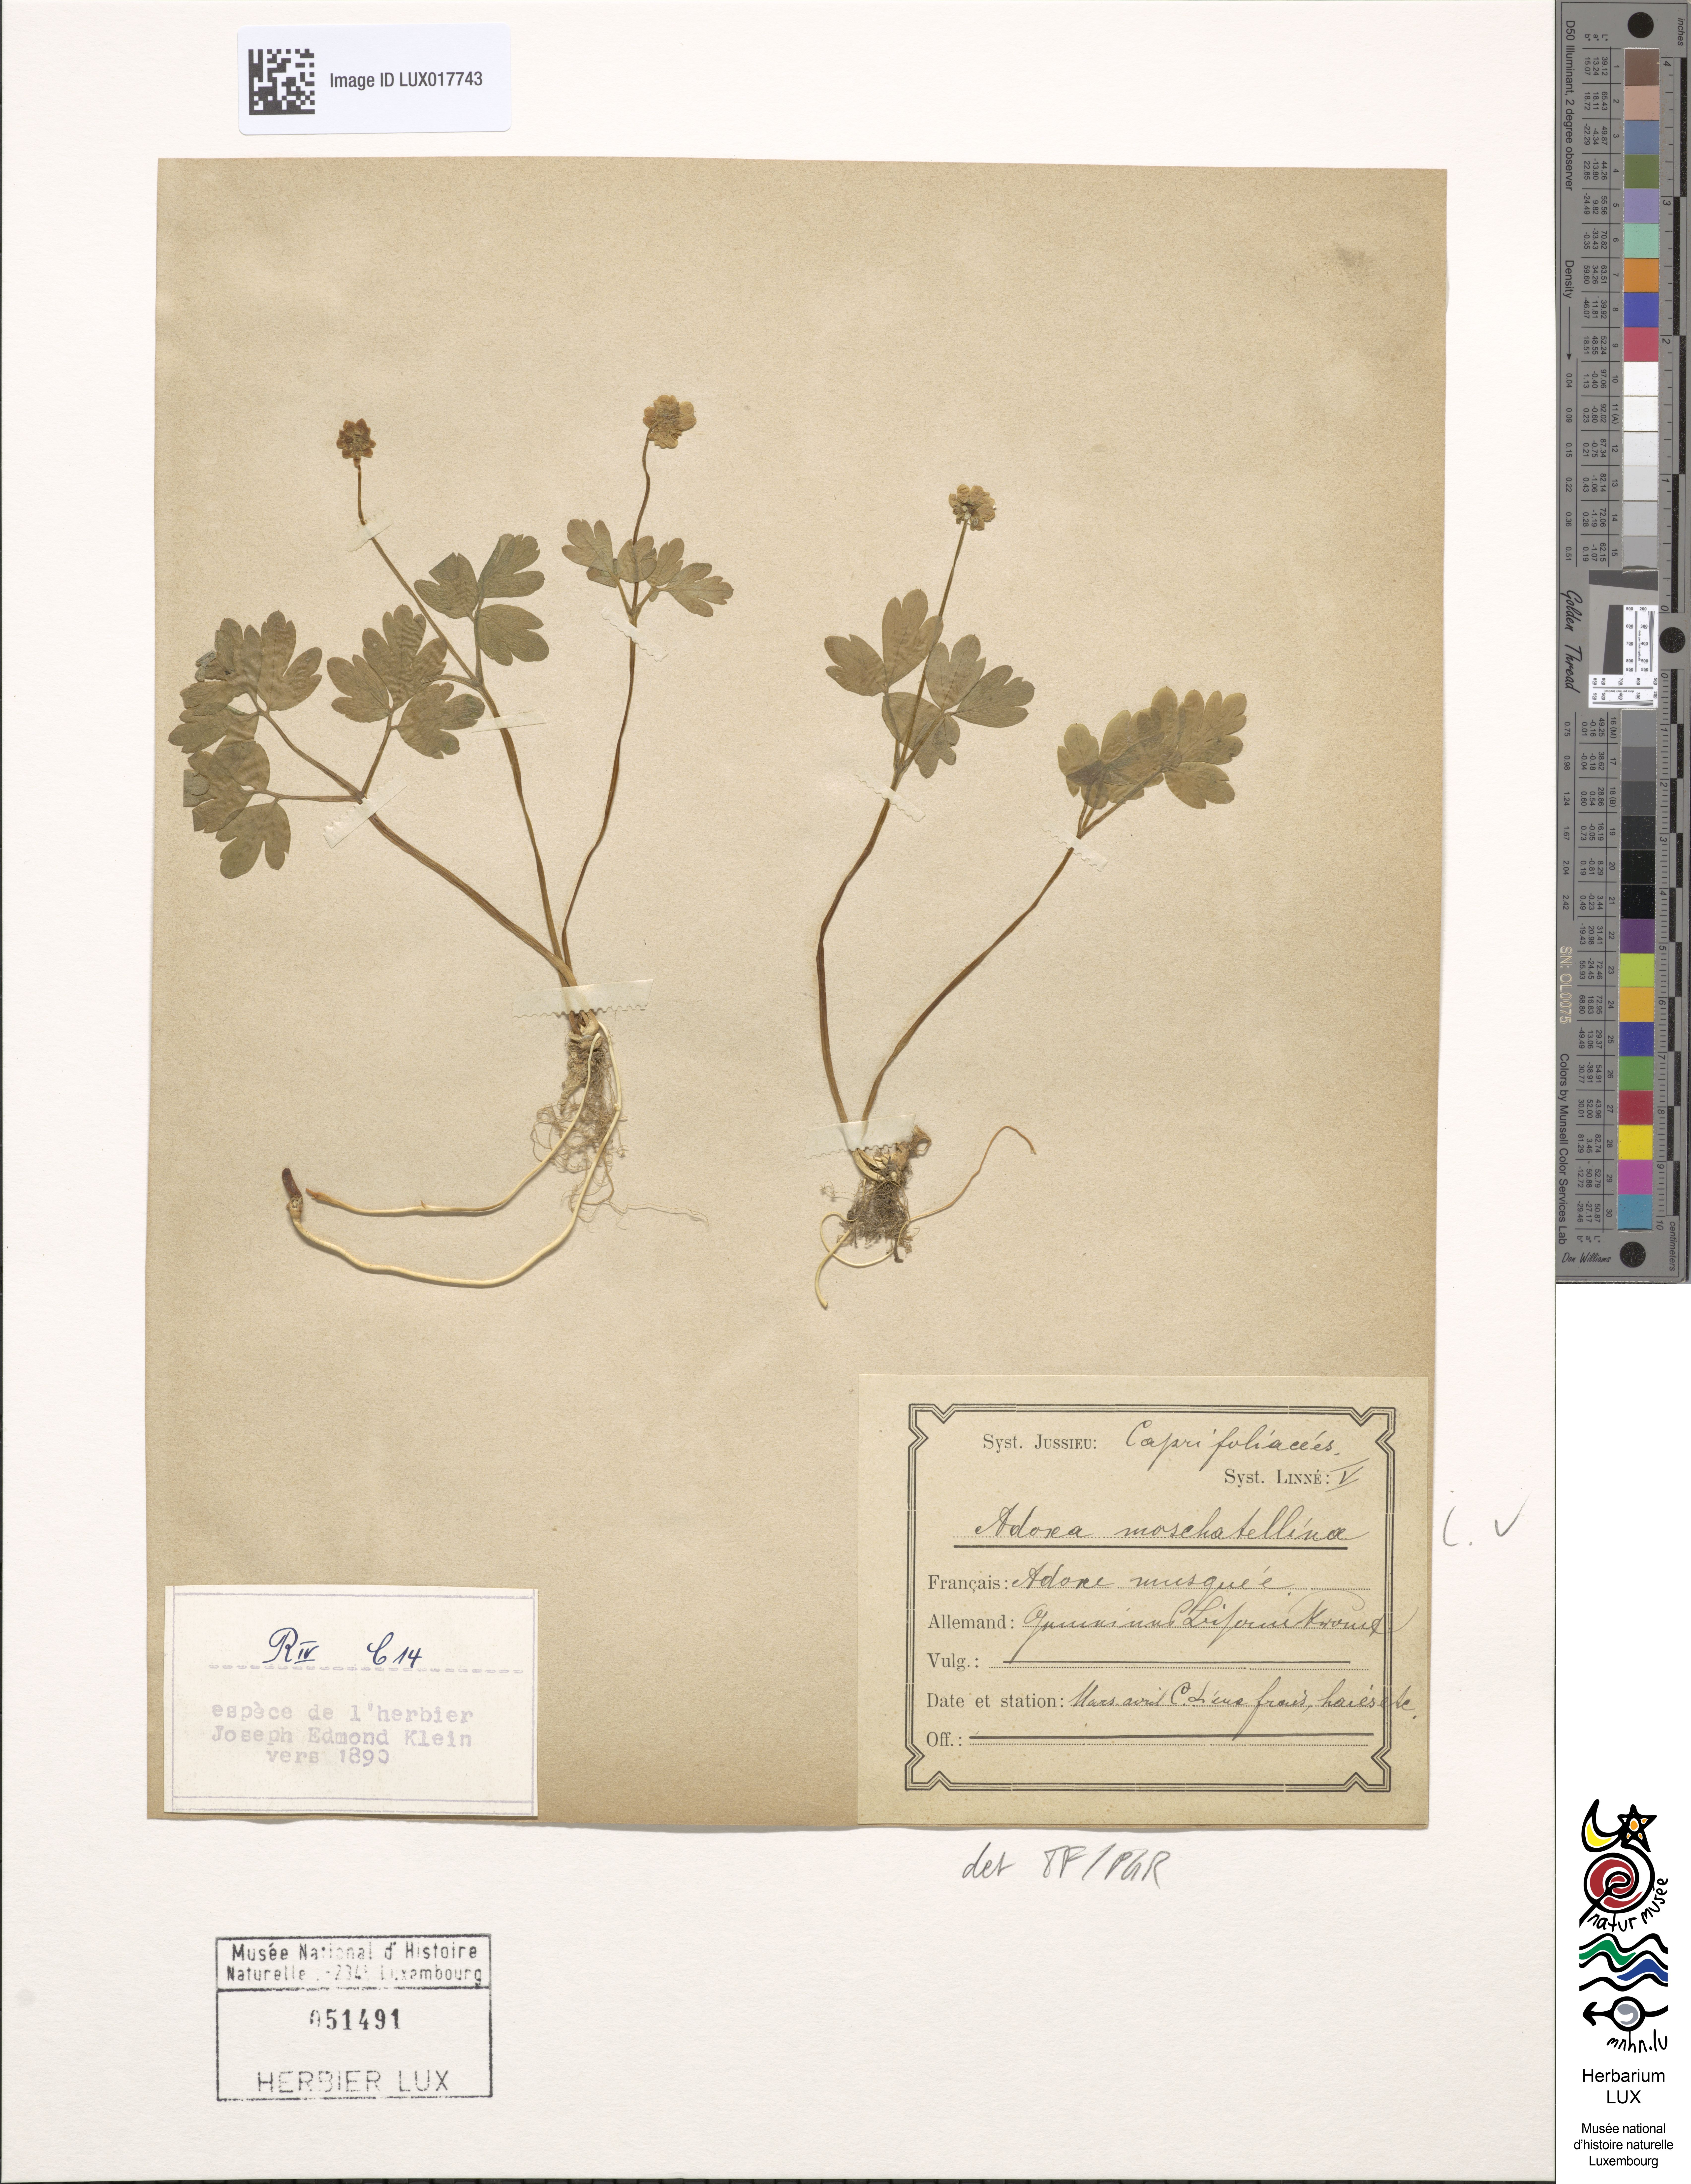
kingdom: Plantae
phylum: Tracheophyta
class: Magnoliopsida
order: Dipsacales
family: Viburnaceae
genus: Adoxa
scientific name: Adoxa moschatellina
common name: Moschatel
